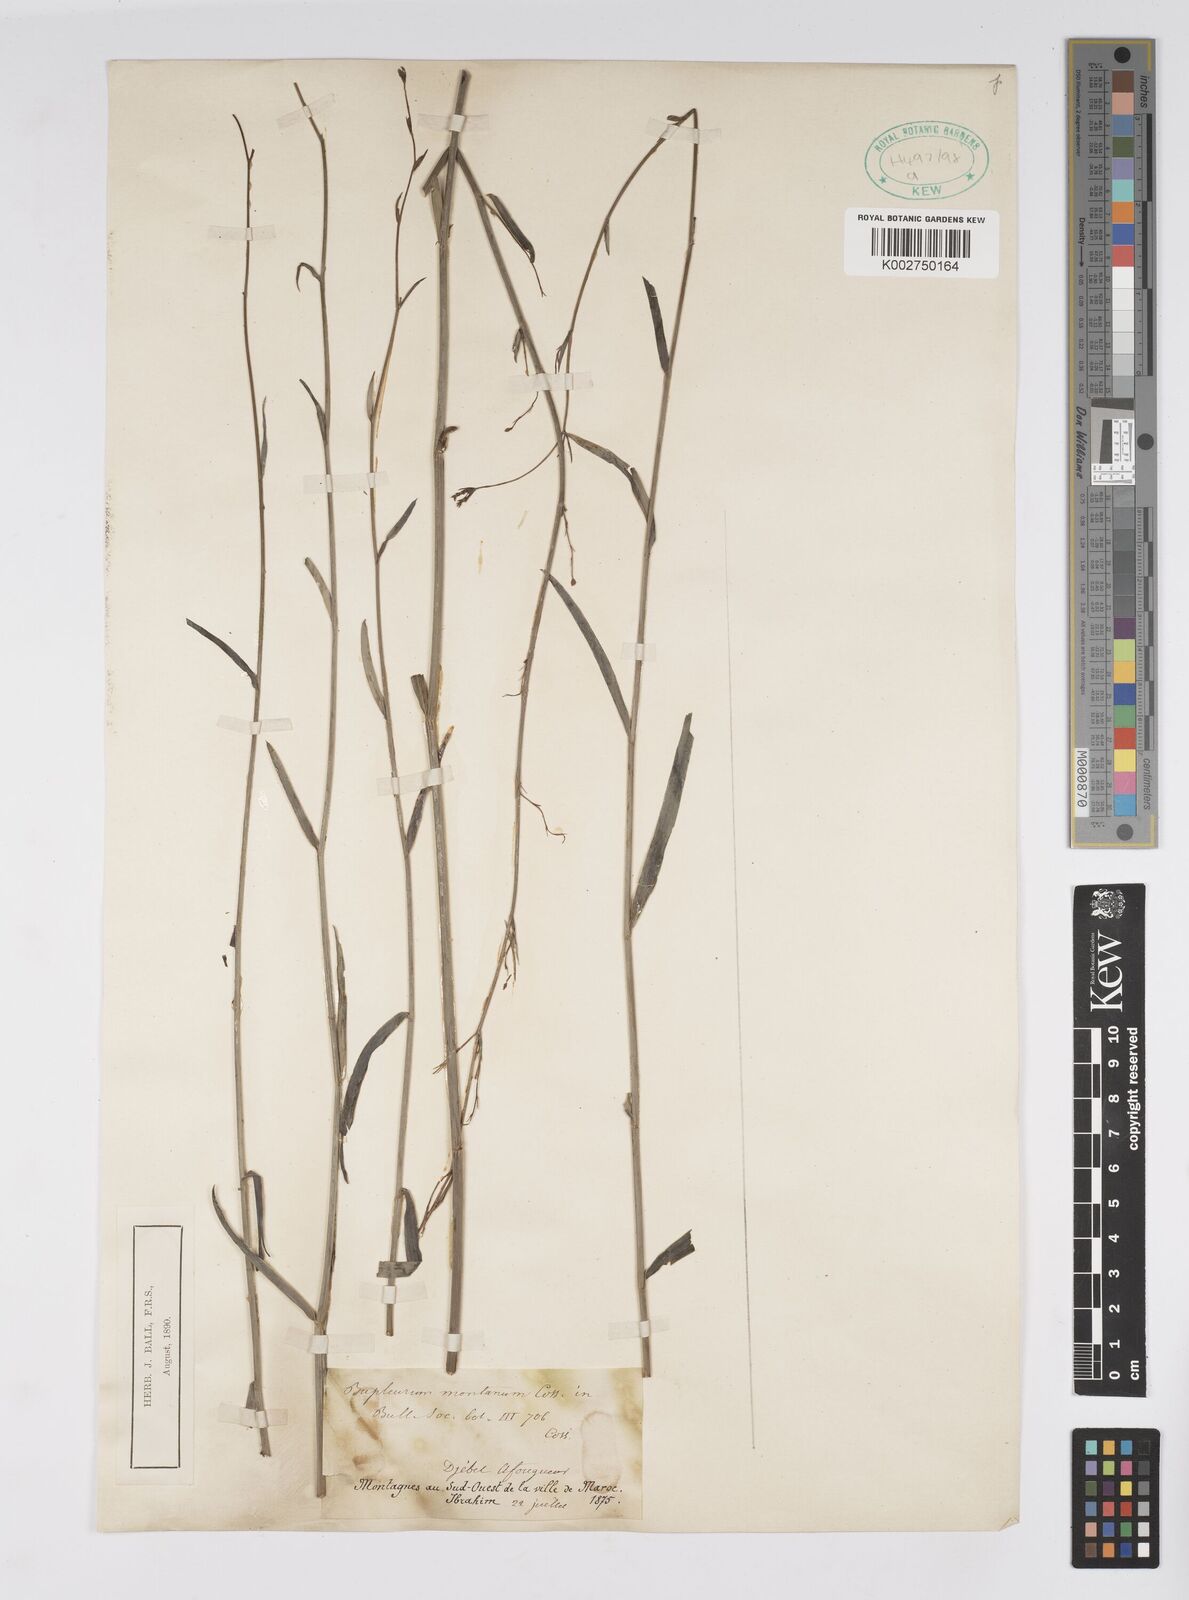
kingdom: Plantae
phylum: Tracheophyta
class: Magnoliopsida
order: Apiales
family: Apiaceae
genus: Bupleurum
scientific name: Bupleurum montanum
